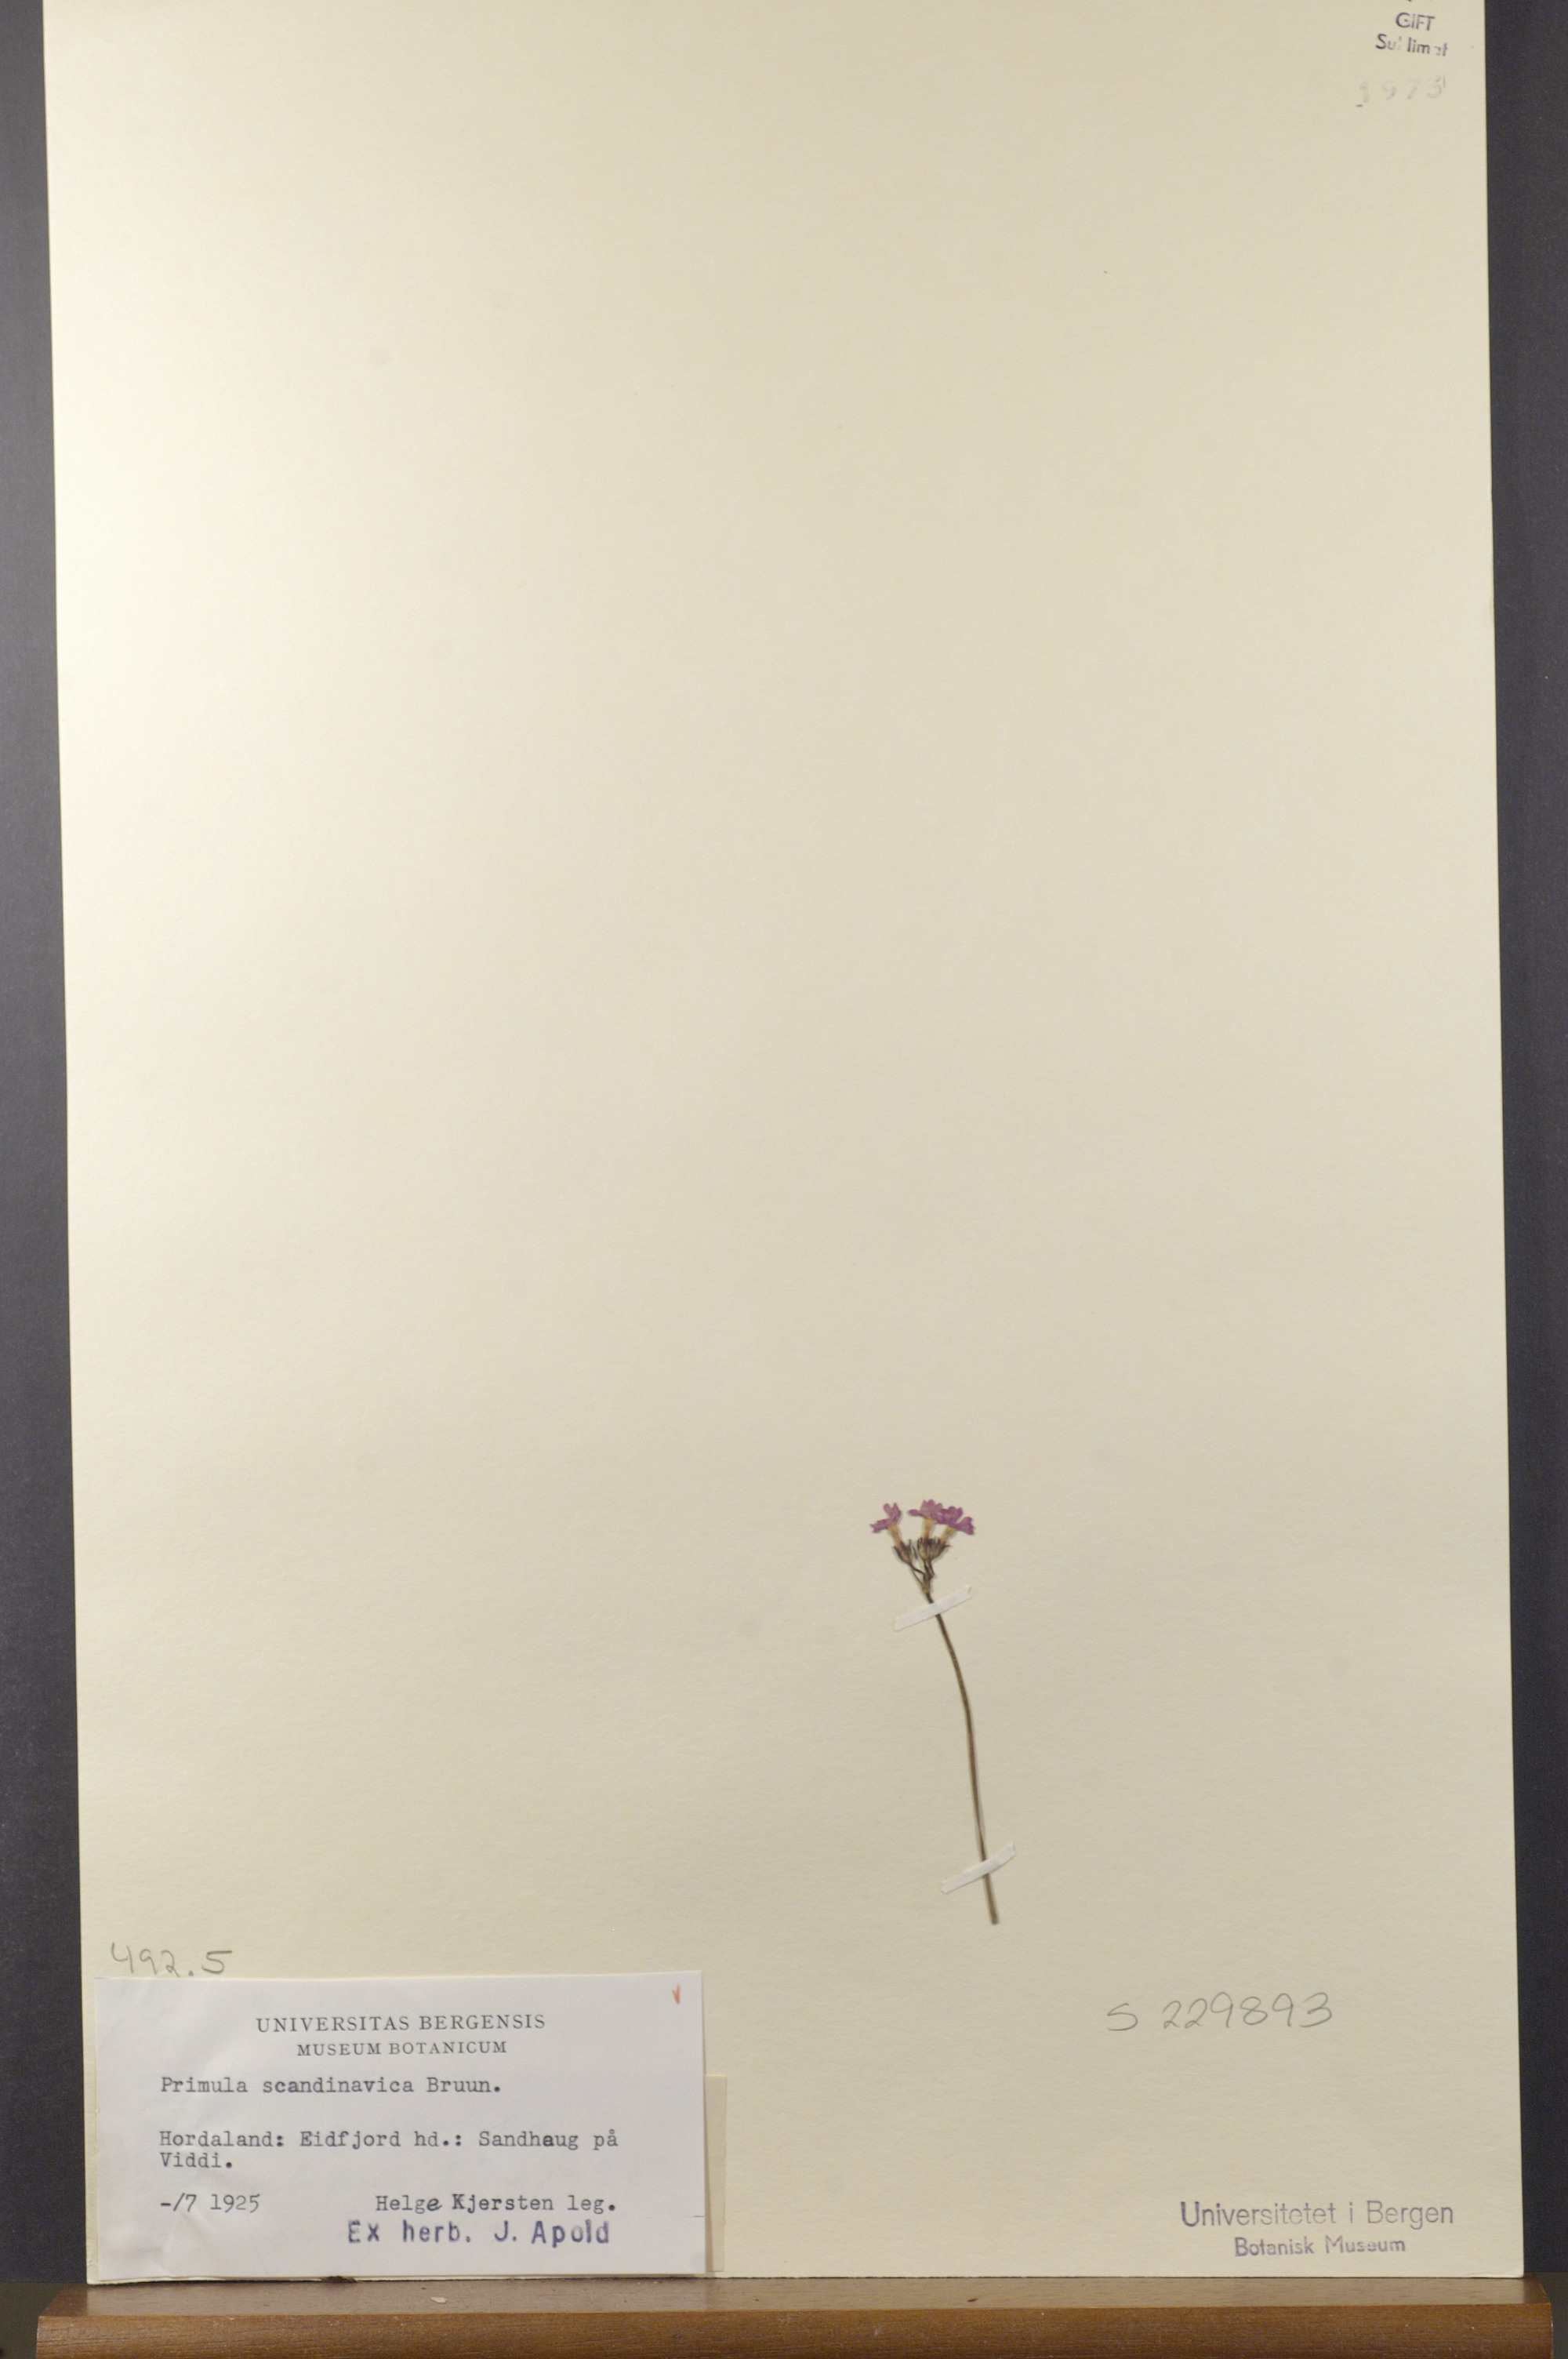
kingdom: Plantae
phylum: Tracheophyta
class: Magnoliopsida
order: Ericales
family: Primulaceae
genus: Primula
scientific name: Primula scandinavica
